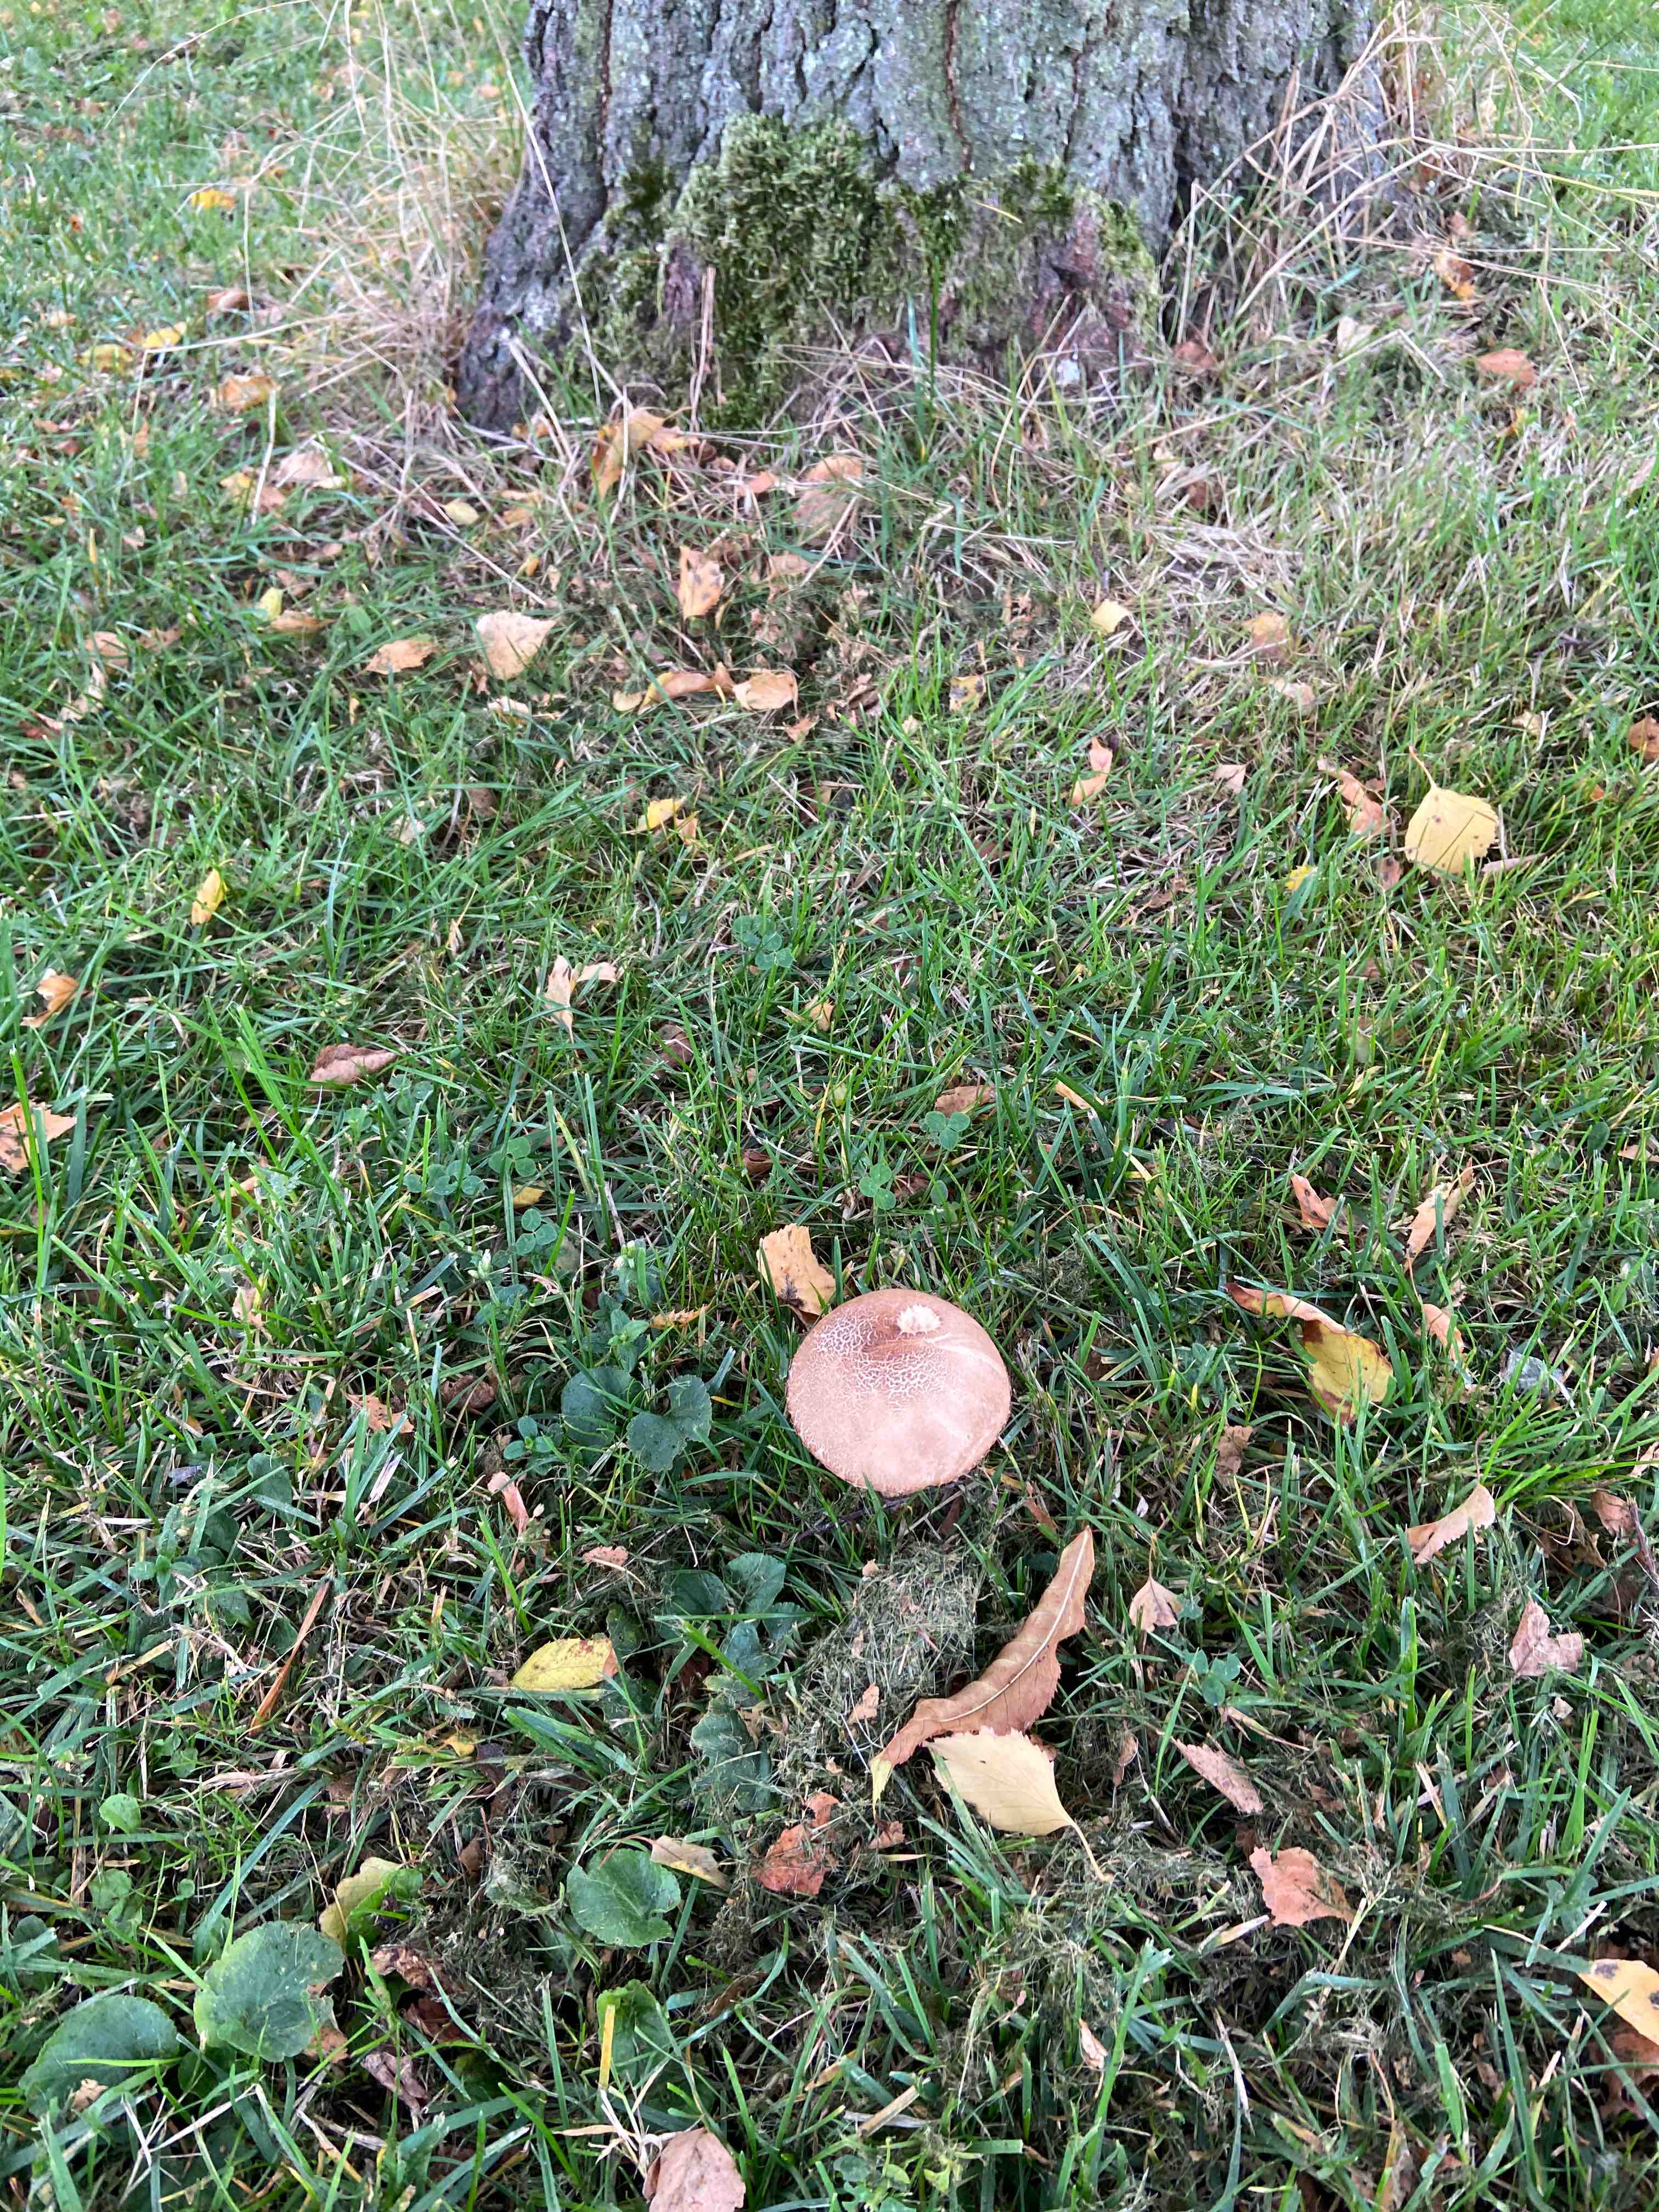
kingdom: Fungi
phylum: Basidiomycota
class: Agaricomycetes
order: Boletales
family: Boletaceae
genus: Leccinum
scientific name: Leccinum scabrum
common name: brun skælrørhat
